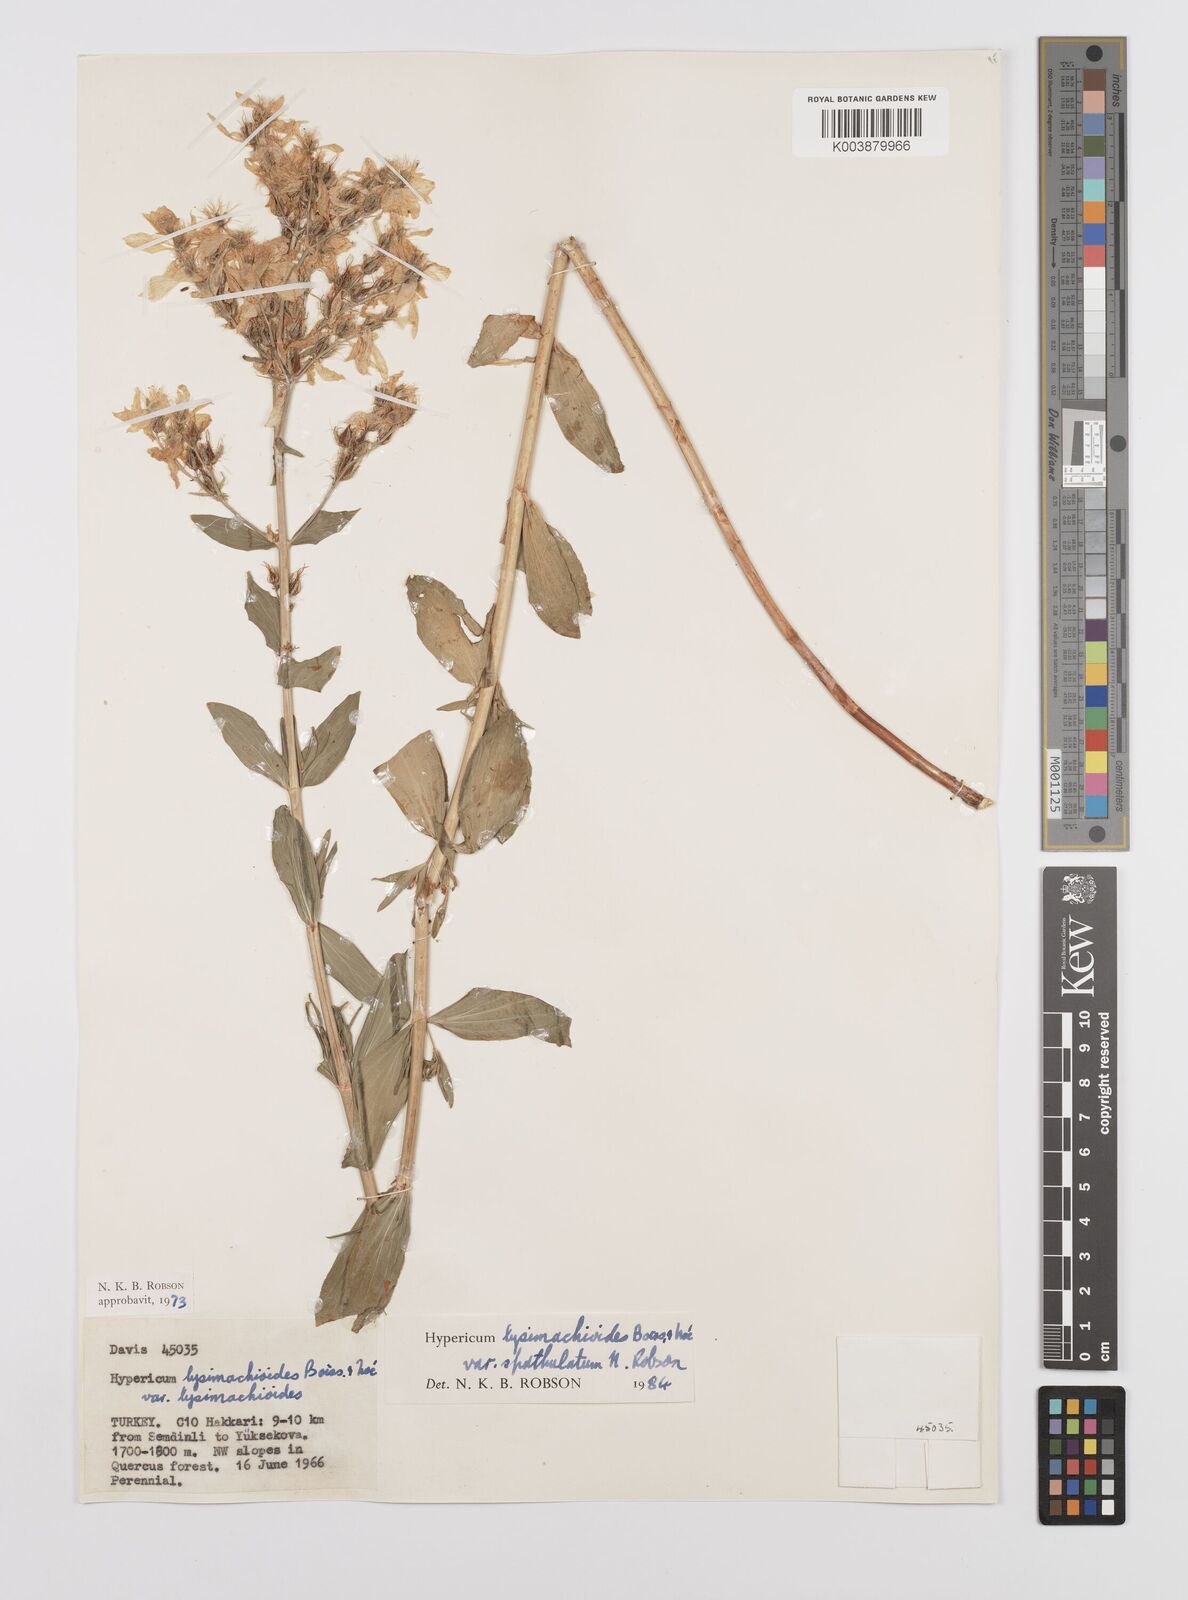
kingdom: Plantae
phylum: Tracheophyta
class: Magnoliopsida
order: Malpighiales
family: Hypericaceae
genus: Hypericum
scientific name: Hypericum lysimachioides
